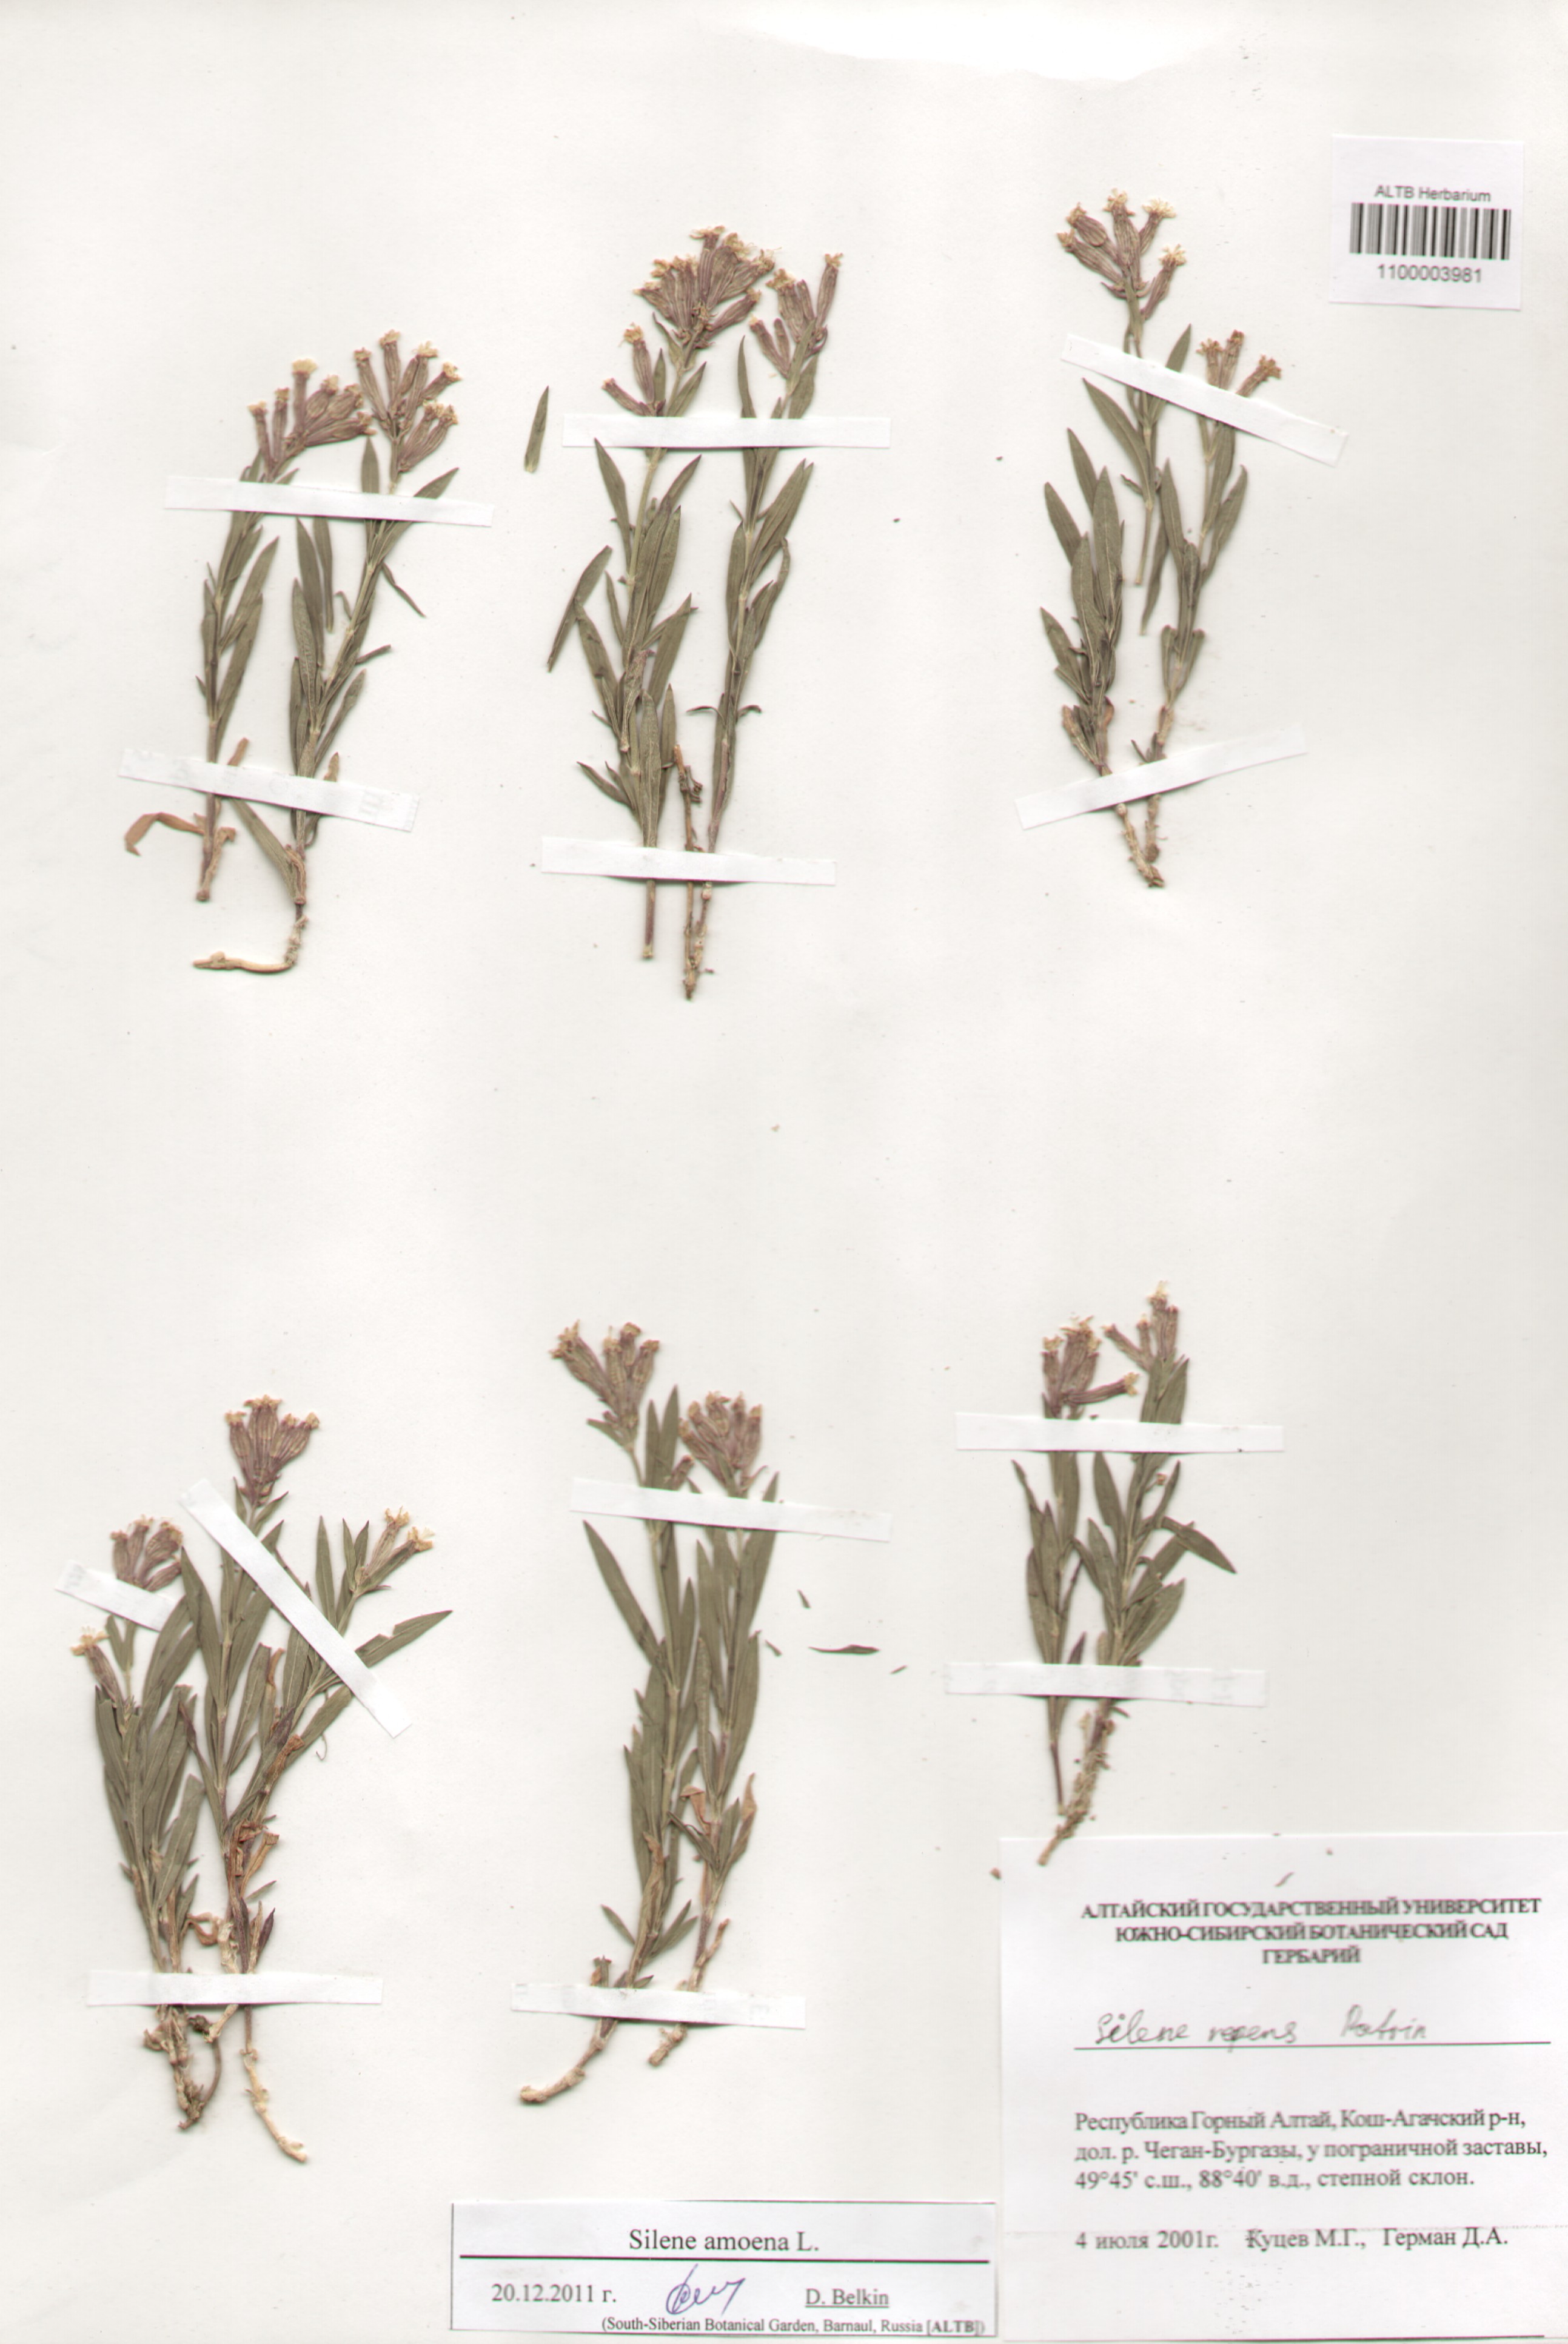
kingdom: Plantae
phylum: Tracheophyta
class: Magnoliopsida
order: Caryophyllales
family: Caryophyllaceae
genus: Silene
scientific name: Silene amoena
